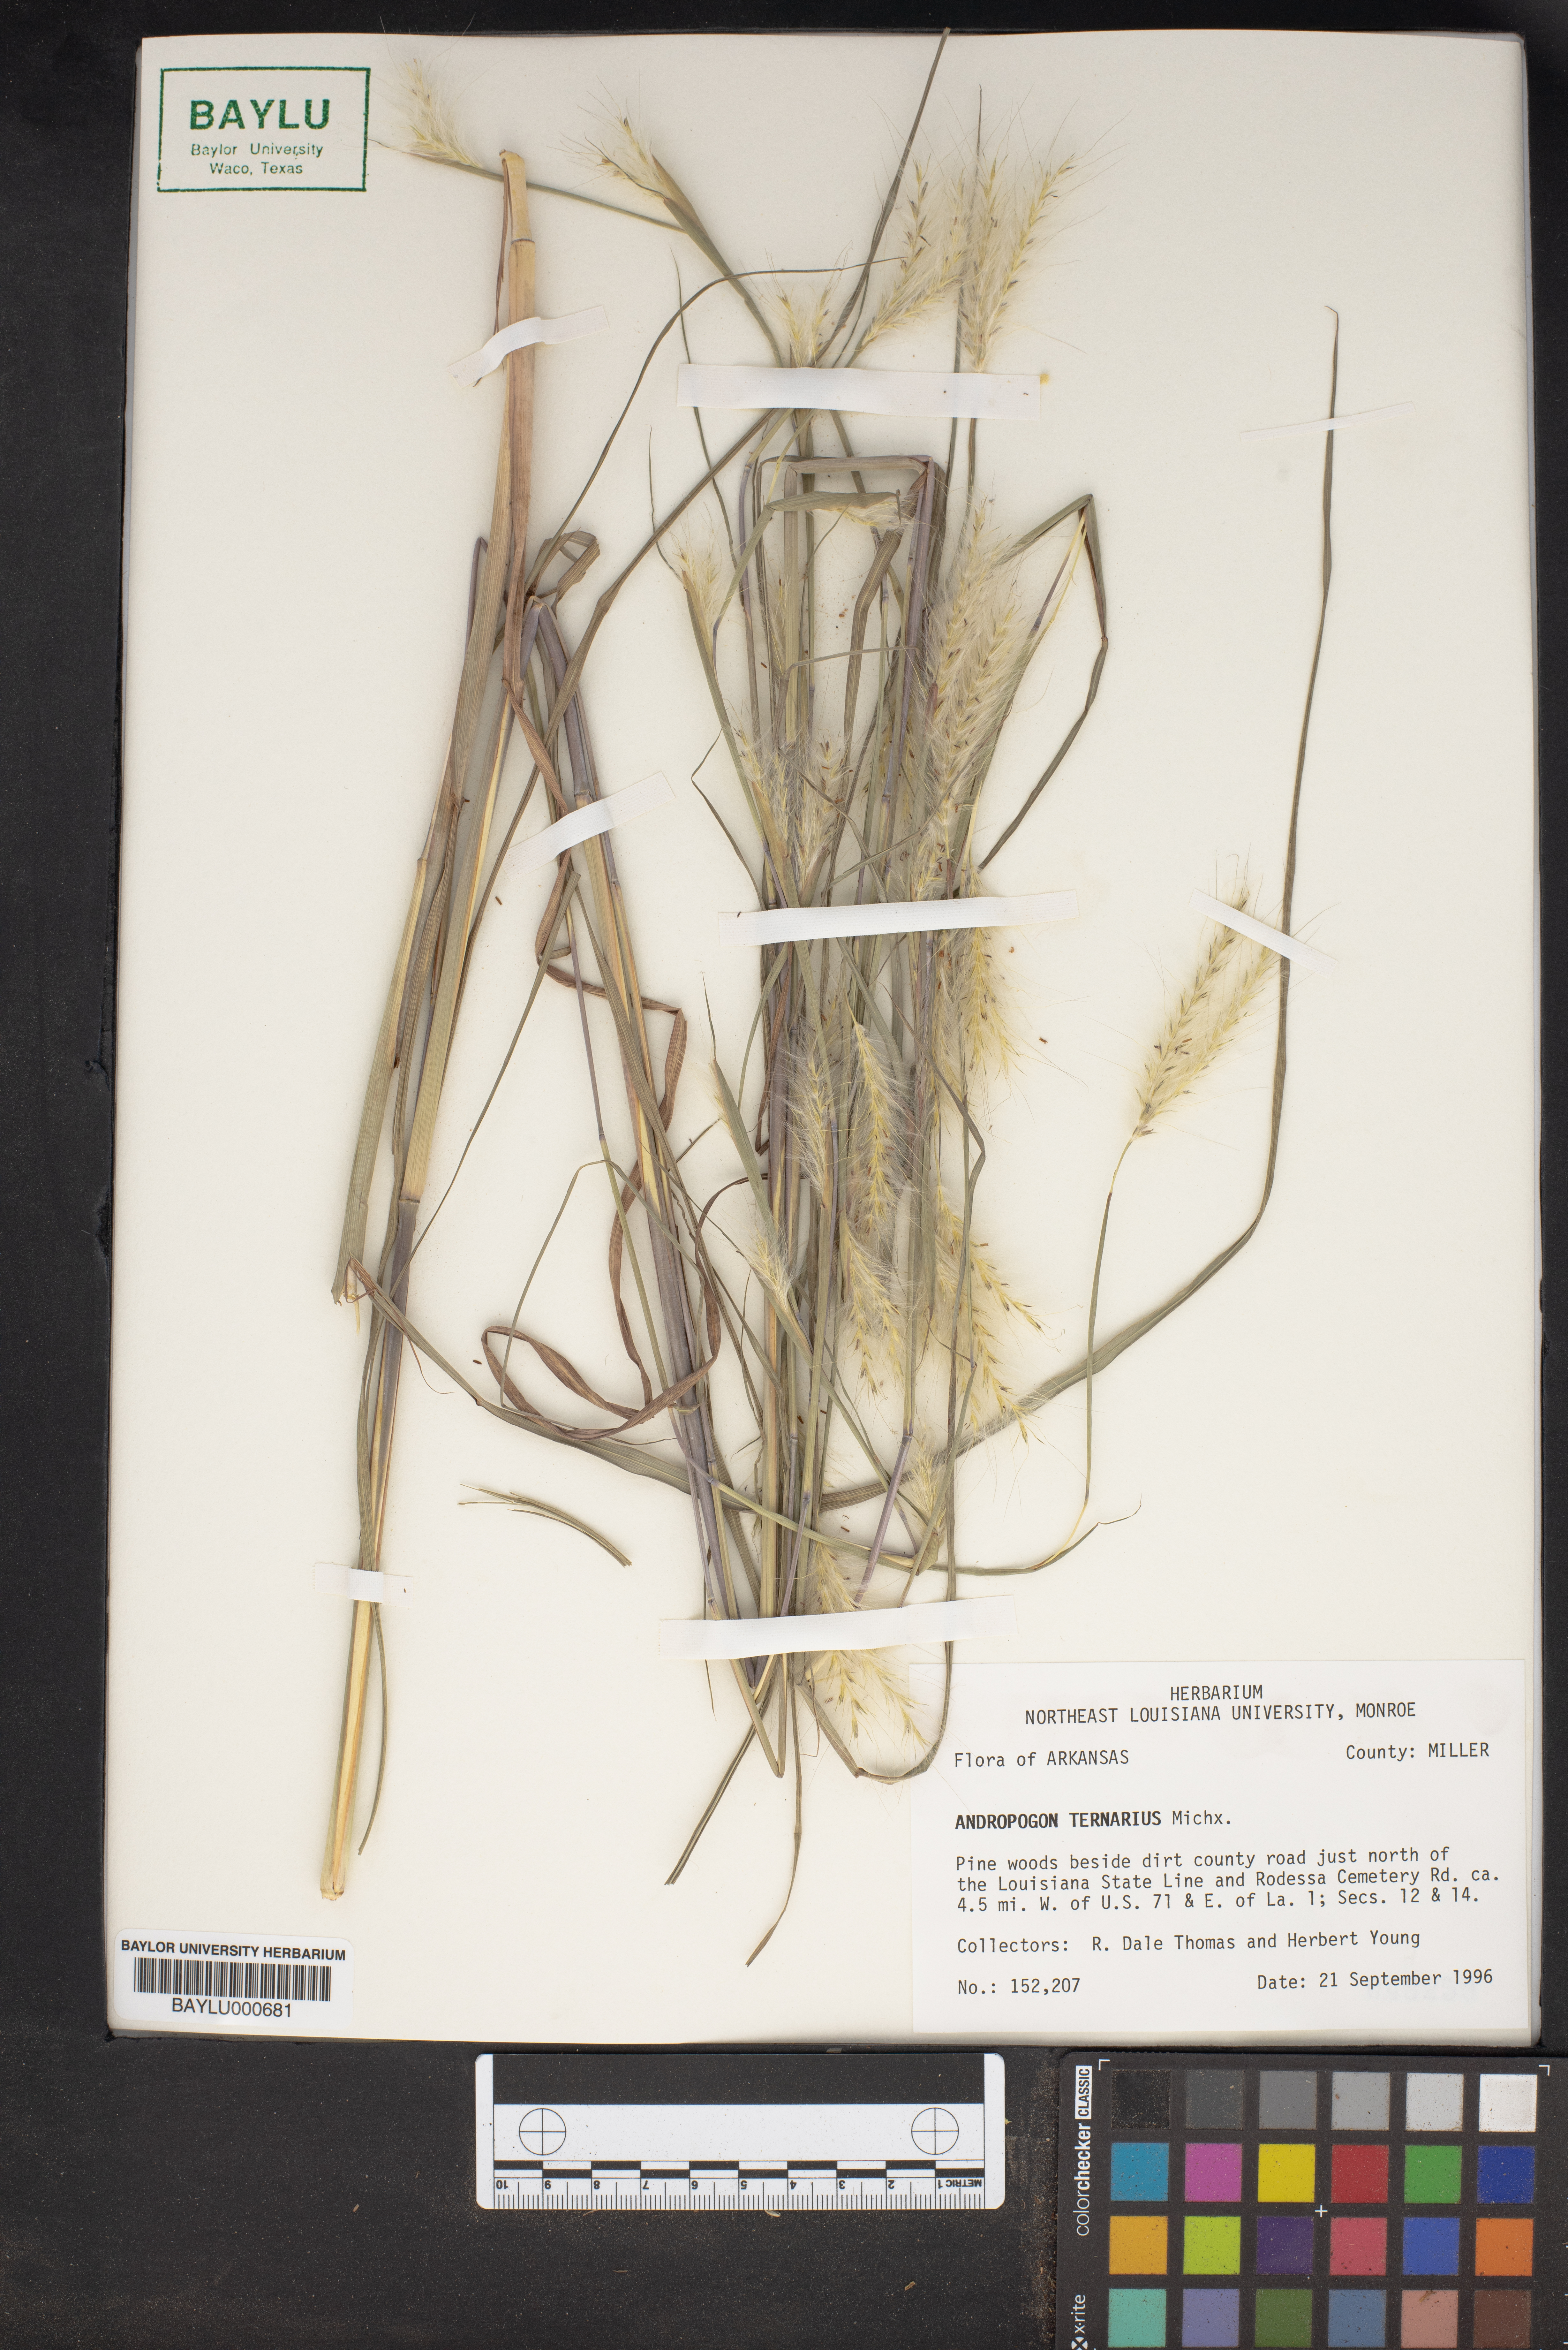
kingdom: Plantae
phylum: Tracheophyta
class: Liliopsida
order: Poales
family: Poaceae
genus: Andropogon
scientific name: Andropogon ternarius
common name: Split bluestem
